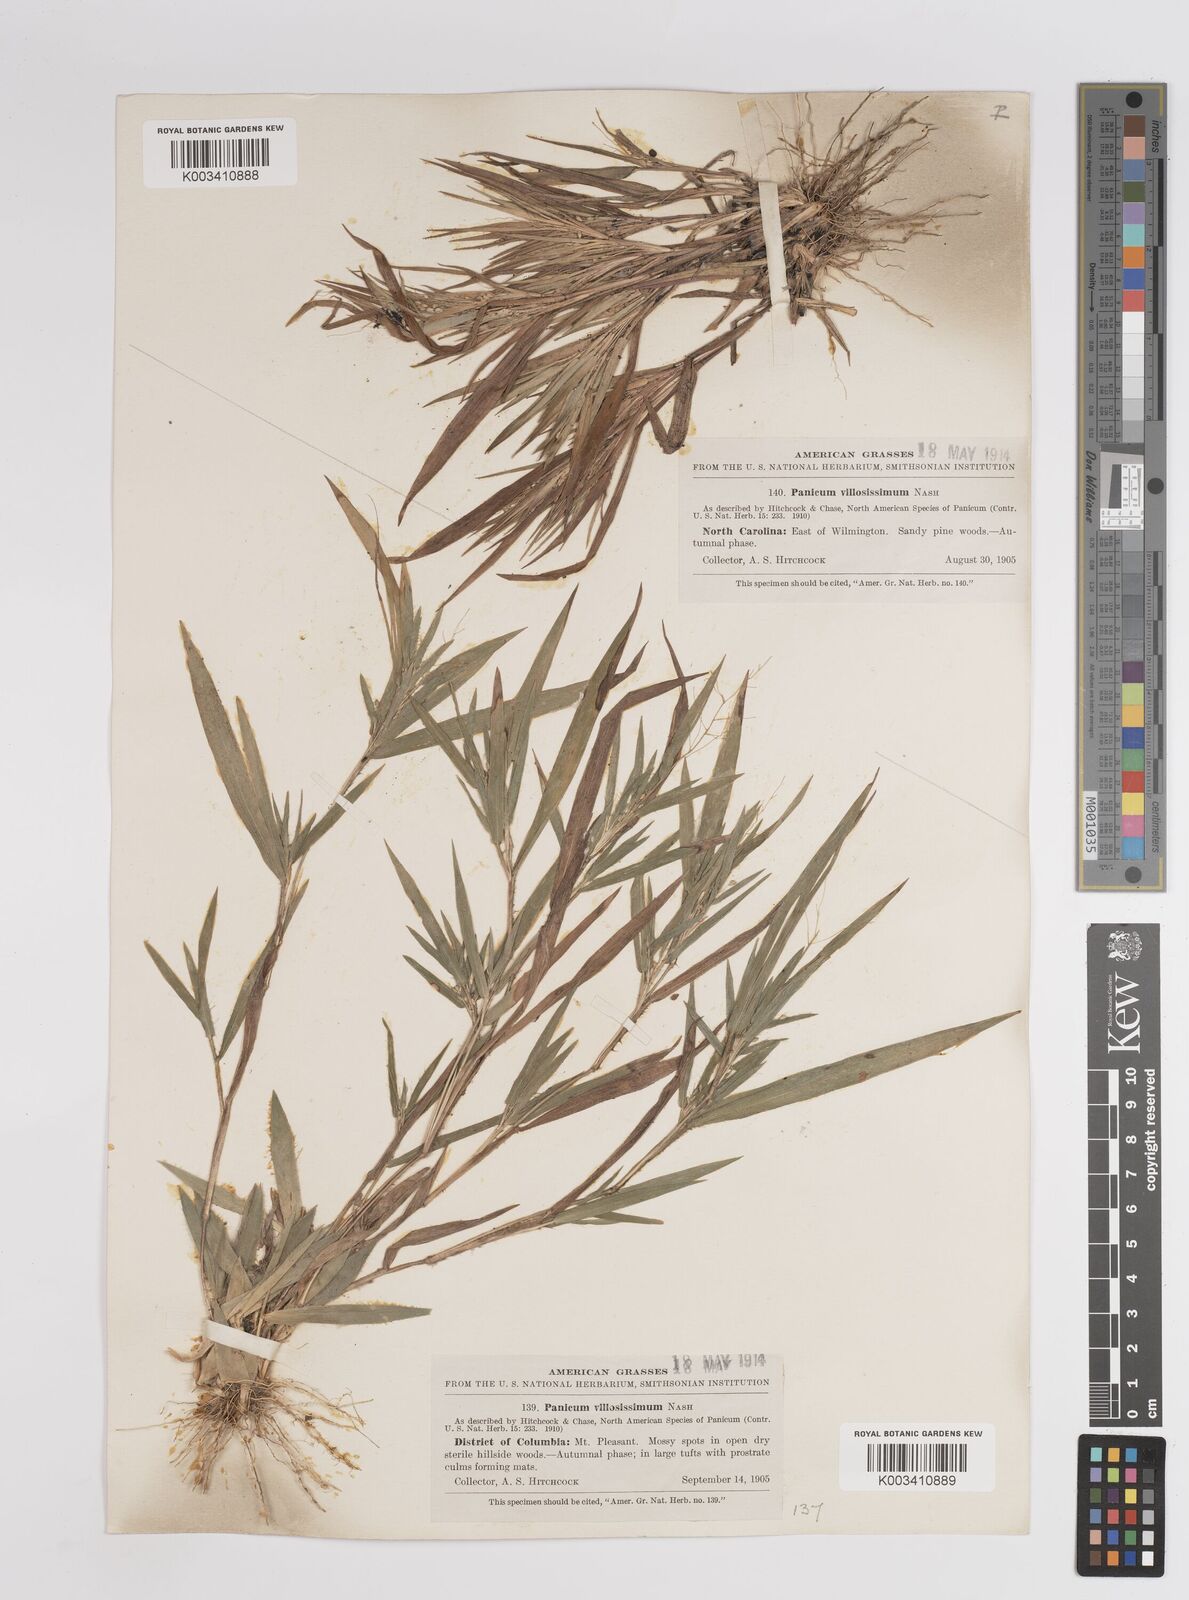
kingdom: Plantae
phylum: Tracheophyta
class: Liliopsida
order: Poales
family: Poaceae
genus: Dichanthelium
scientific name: Dichanthelium villosissimum
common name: White-haired panicgrass
